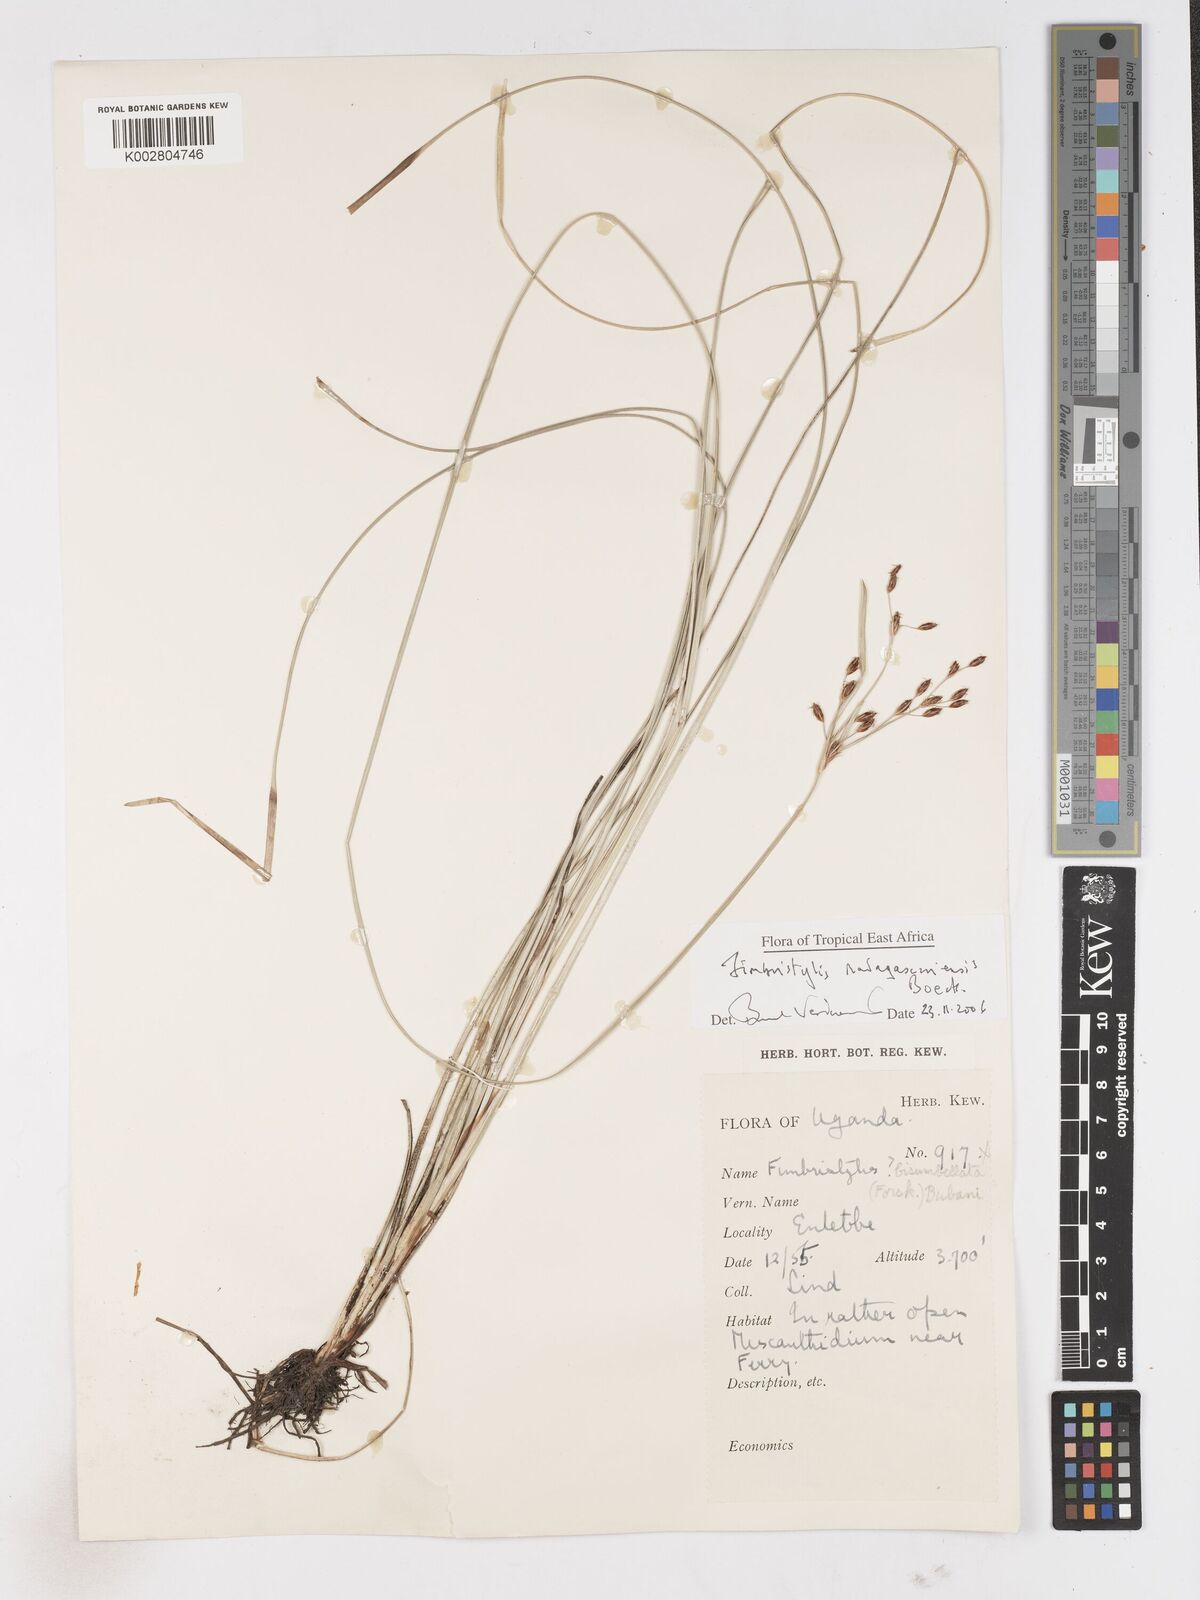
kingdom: Plantae
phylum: Tracheophyta
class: Liliopsida
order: Poales
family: Cyperaceae
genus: Fimbristylis
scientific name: Fimbristylis madagascariensis
